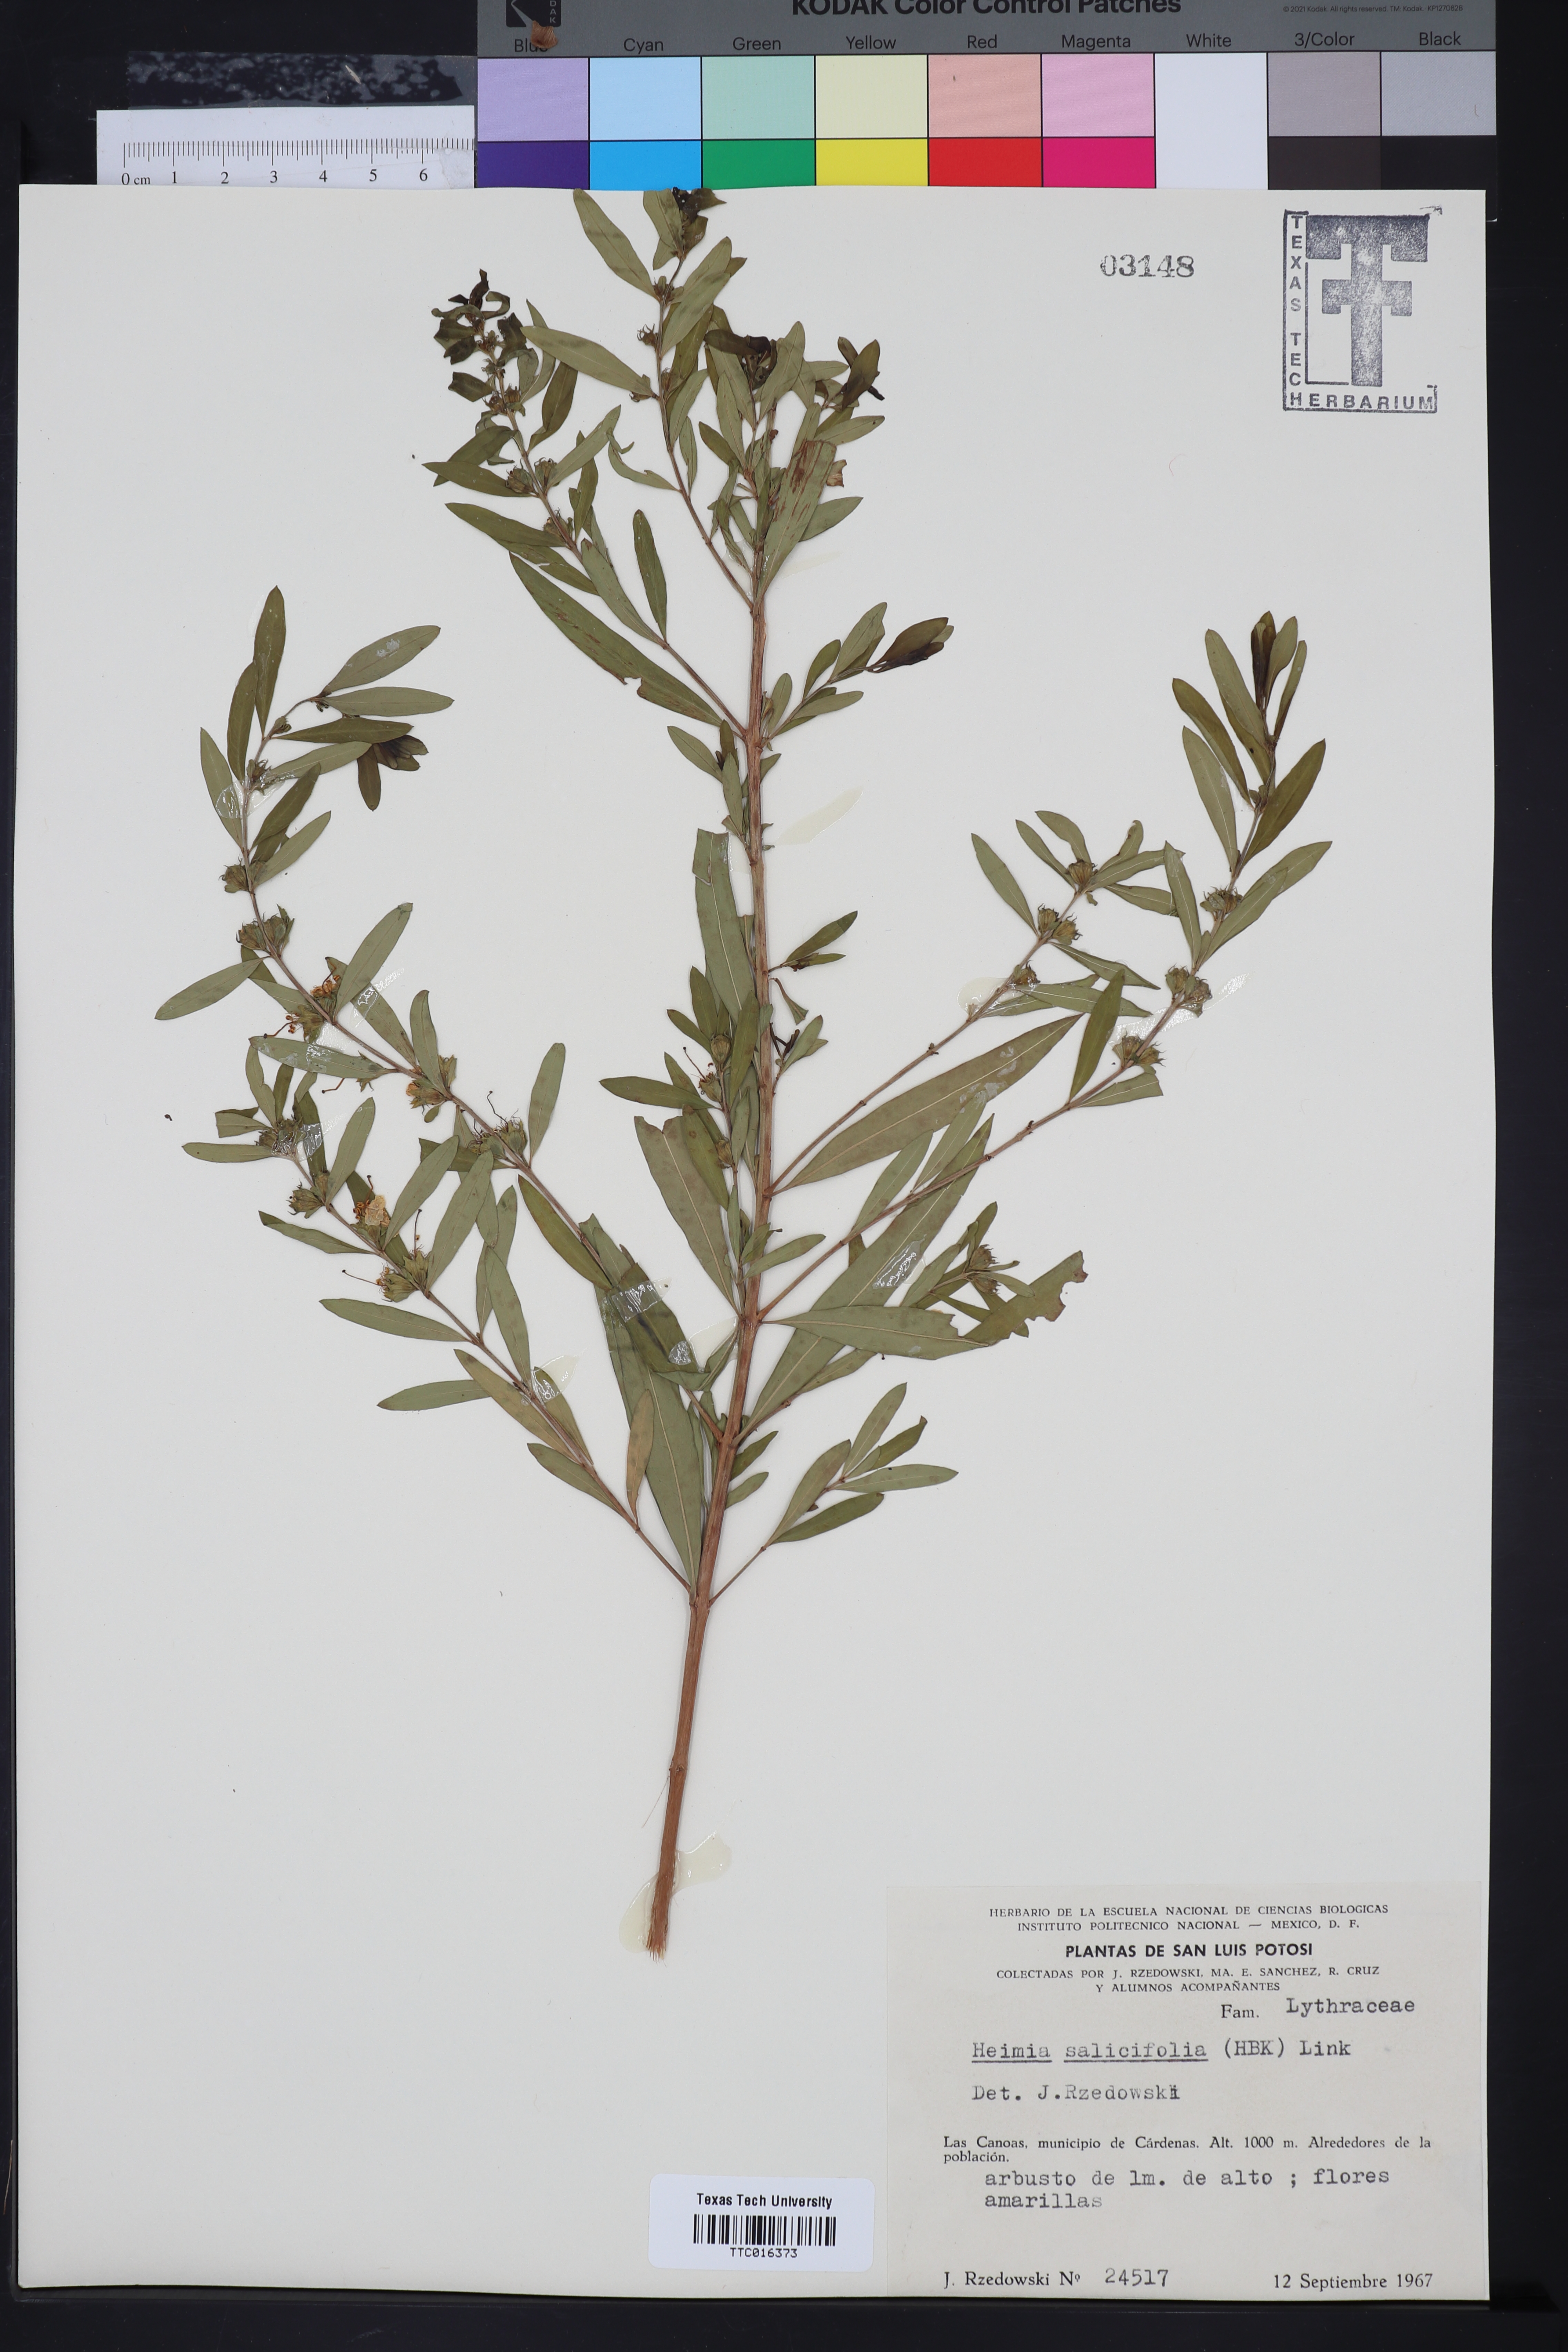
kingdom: Plantae
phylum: Tracheophyta
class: Magnoliopsida
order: Myrtales
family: Lythraceae
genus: Heimia
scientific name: Heimia salicifolia
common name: Willow-leaf heimia
